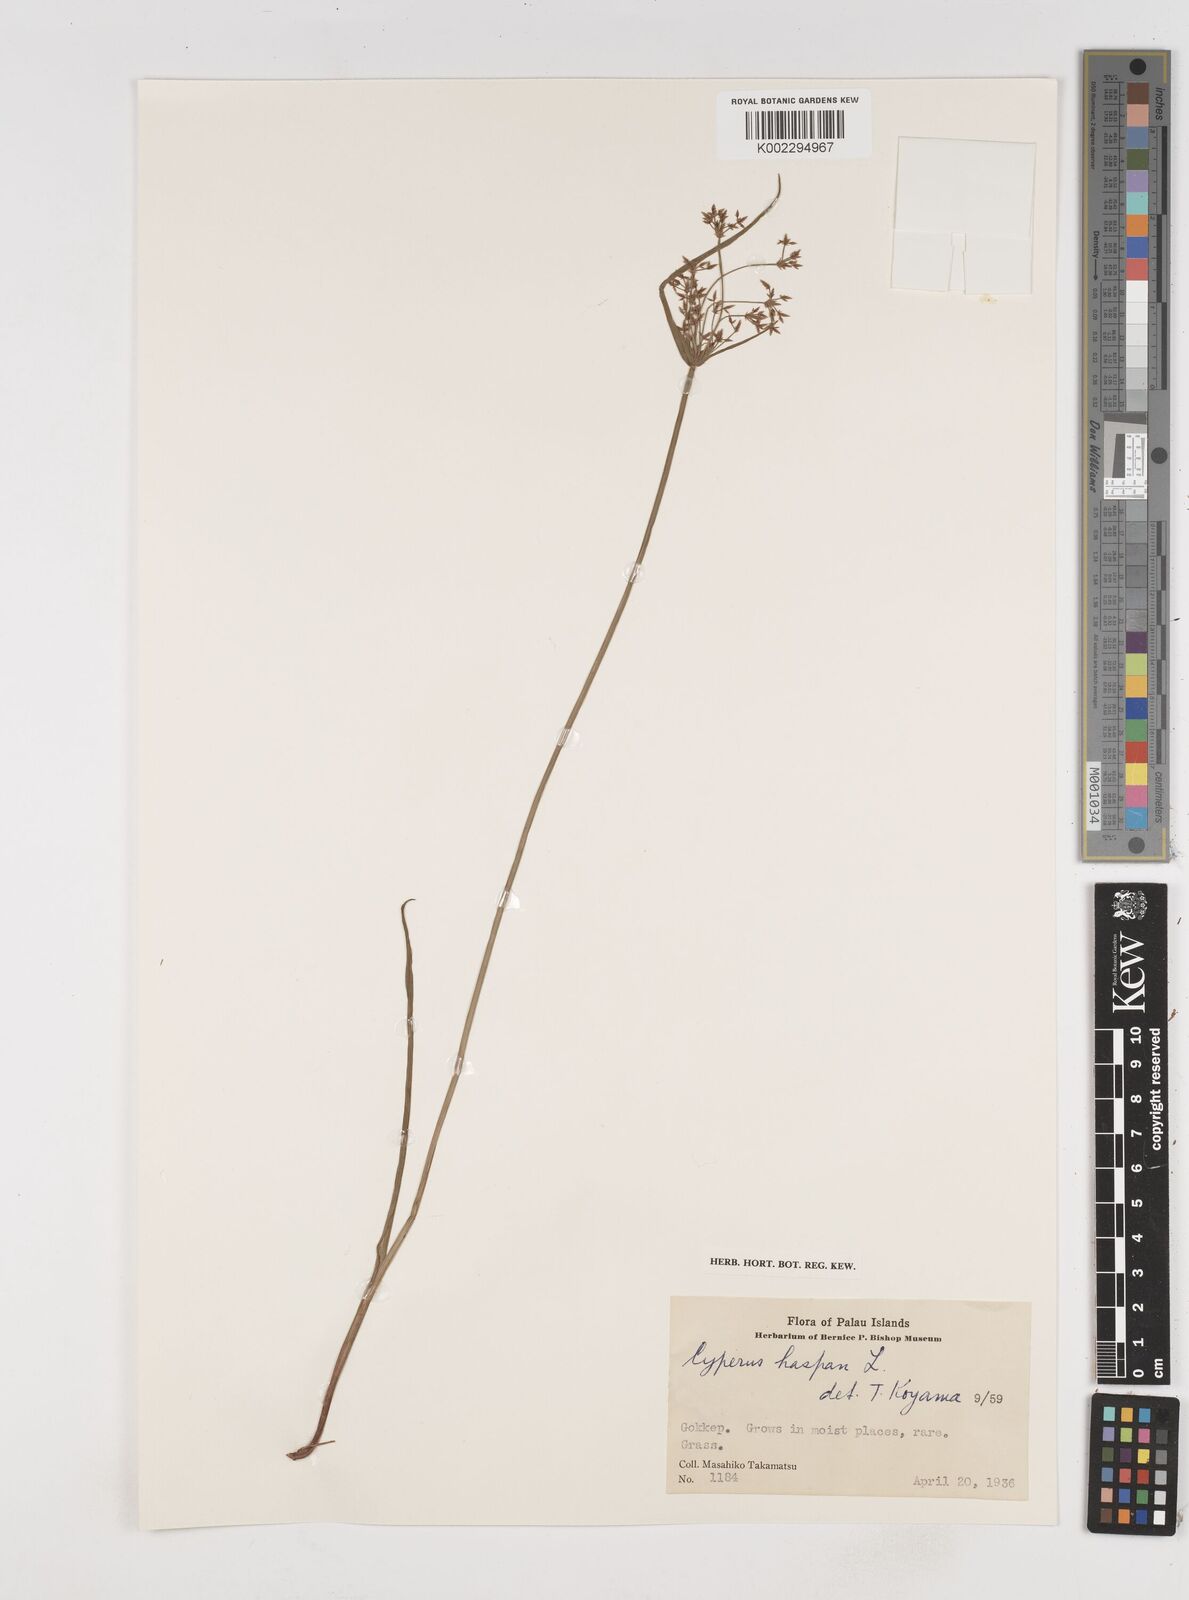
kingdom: Plantae
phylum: Tracheophyta
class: Liliopsida
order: Poales
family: Cyperaceae
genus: Cyperus
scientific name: Cyperus haspan
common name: Haspan flatsedge
